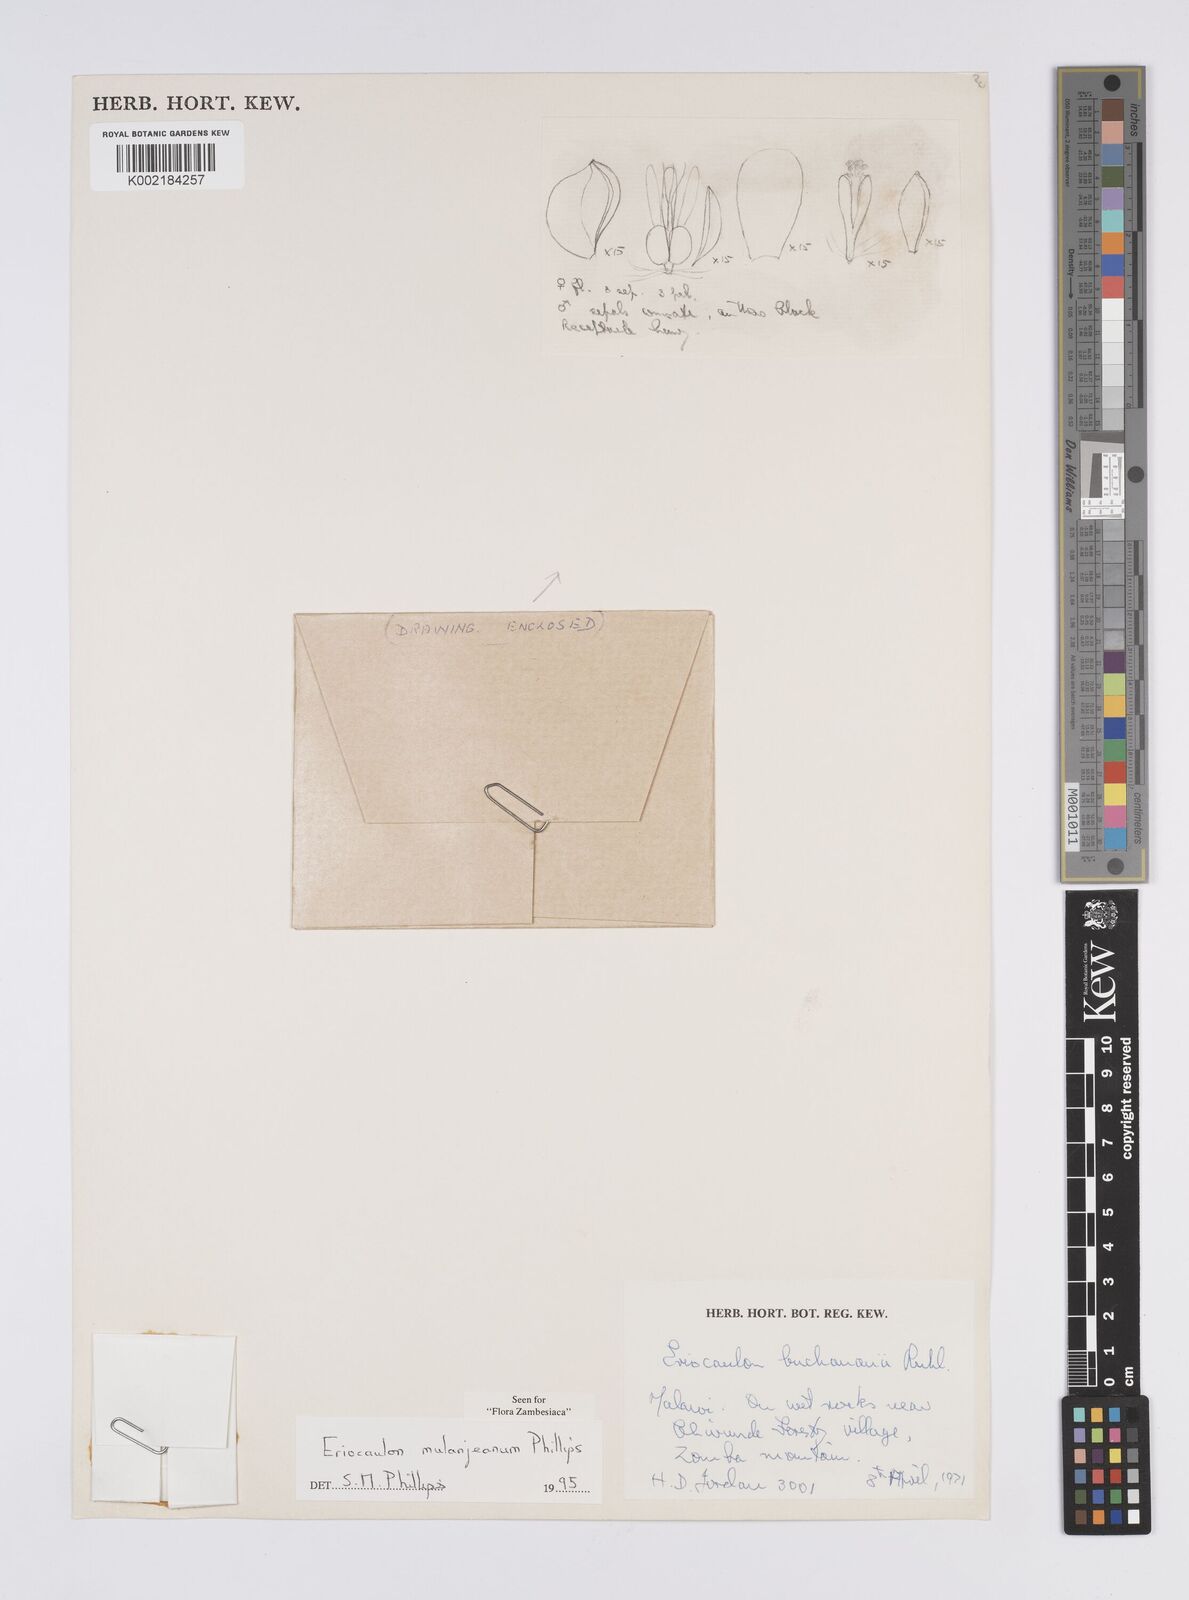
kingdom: Plantae
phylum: Tracheophyta
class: Liliopsida
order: Poales
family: Eriocaulaceae
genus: Eriocaulon
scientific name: Eriocaulon mulanjeanum
